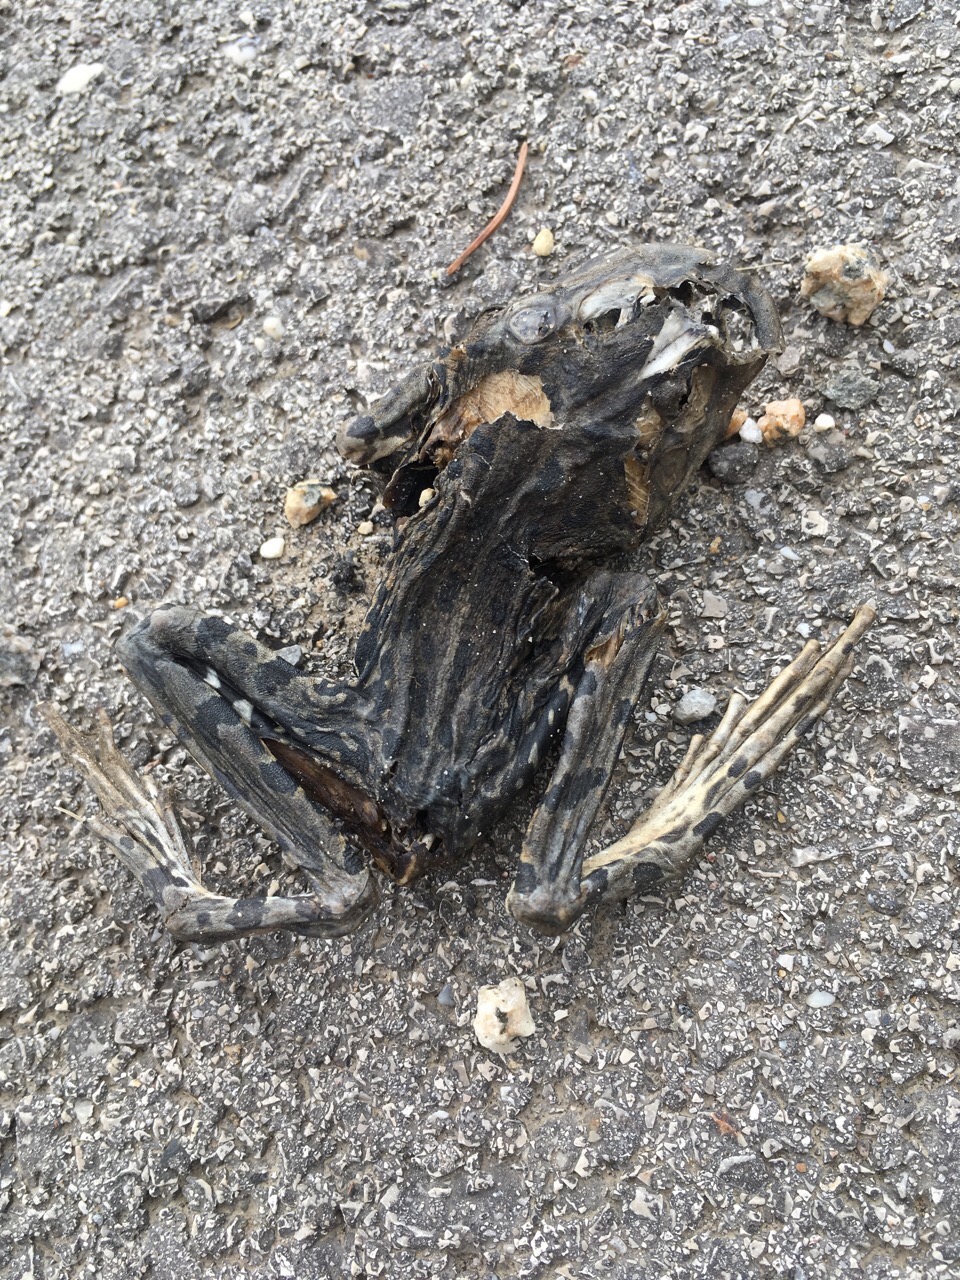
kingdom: Animalia
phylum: Chordata
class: Amphibia
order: Anura
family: Bufonidae
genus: Bufotes
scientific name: Bufotes viridis
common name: European green toad
